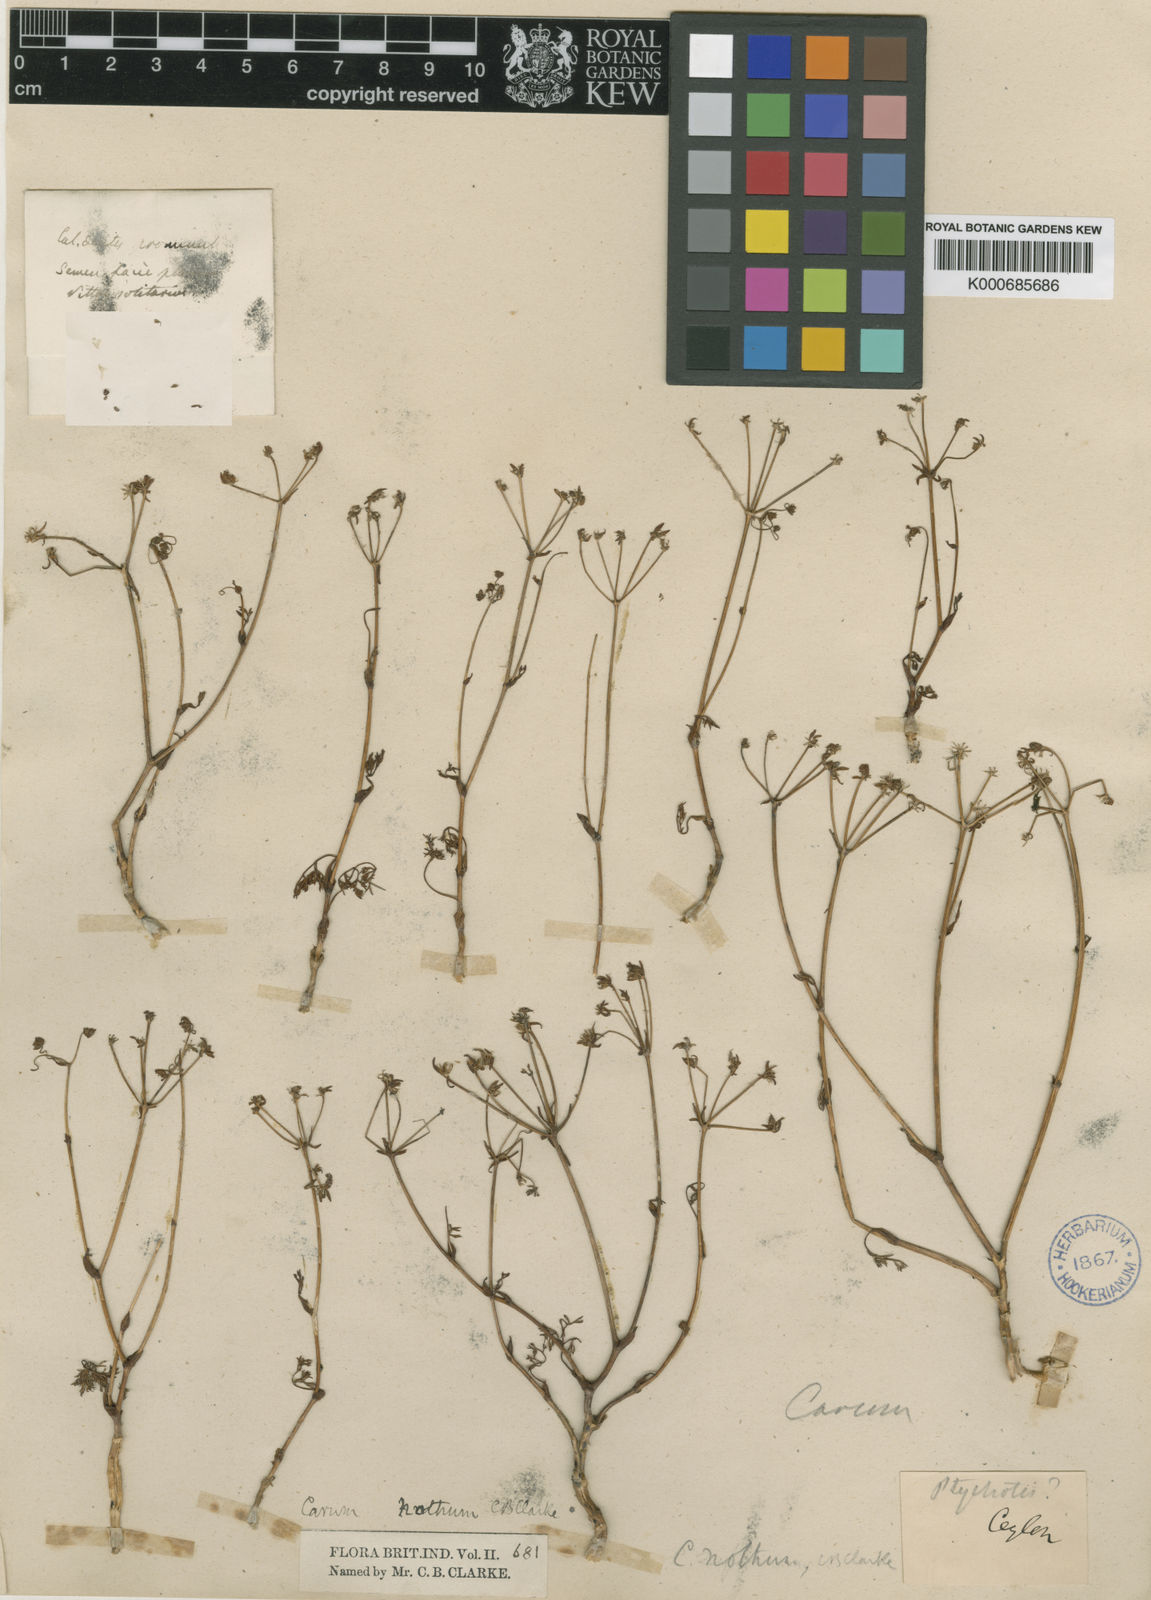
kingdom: Plantae
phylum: Tracheophyta
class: Magnoliopsida
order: Apiales
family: Apiaceae
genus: Bunium
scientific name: Bunium nothum
